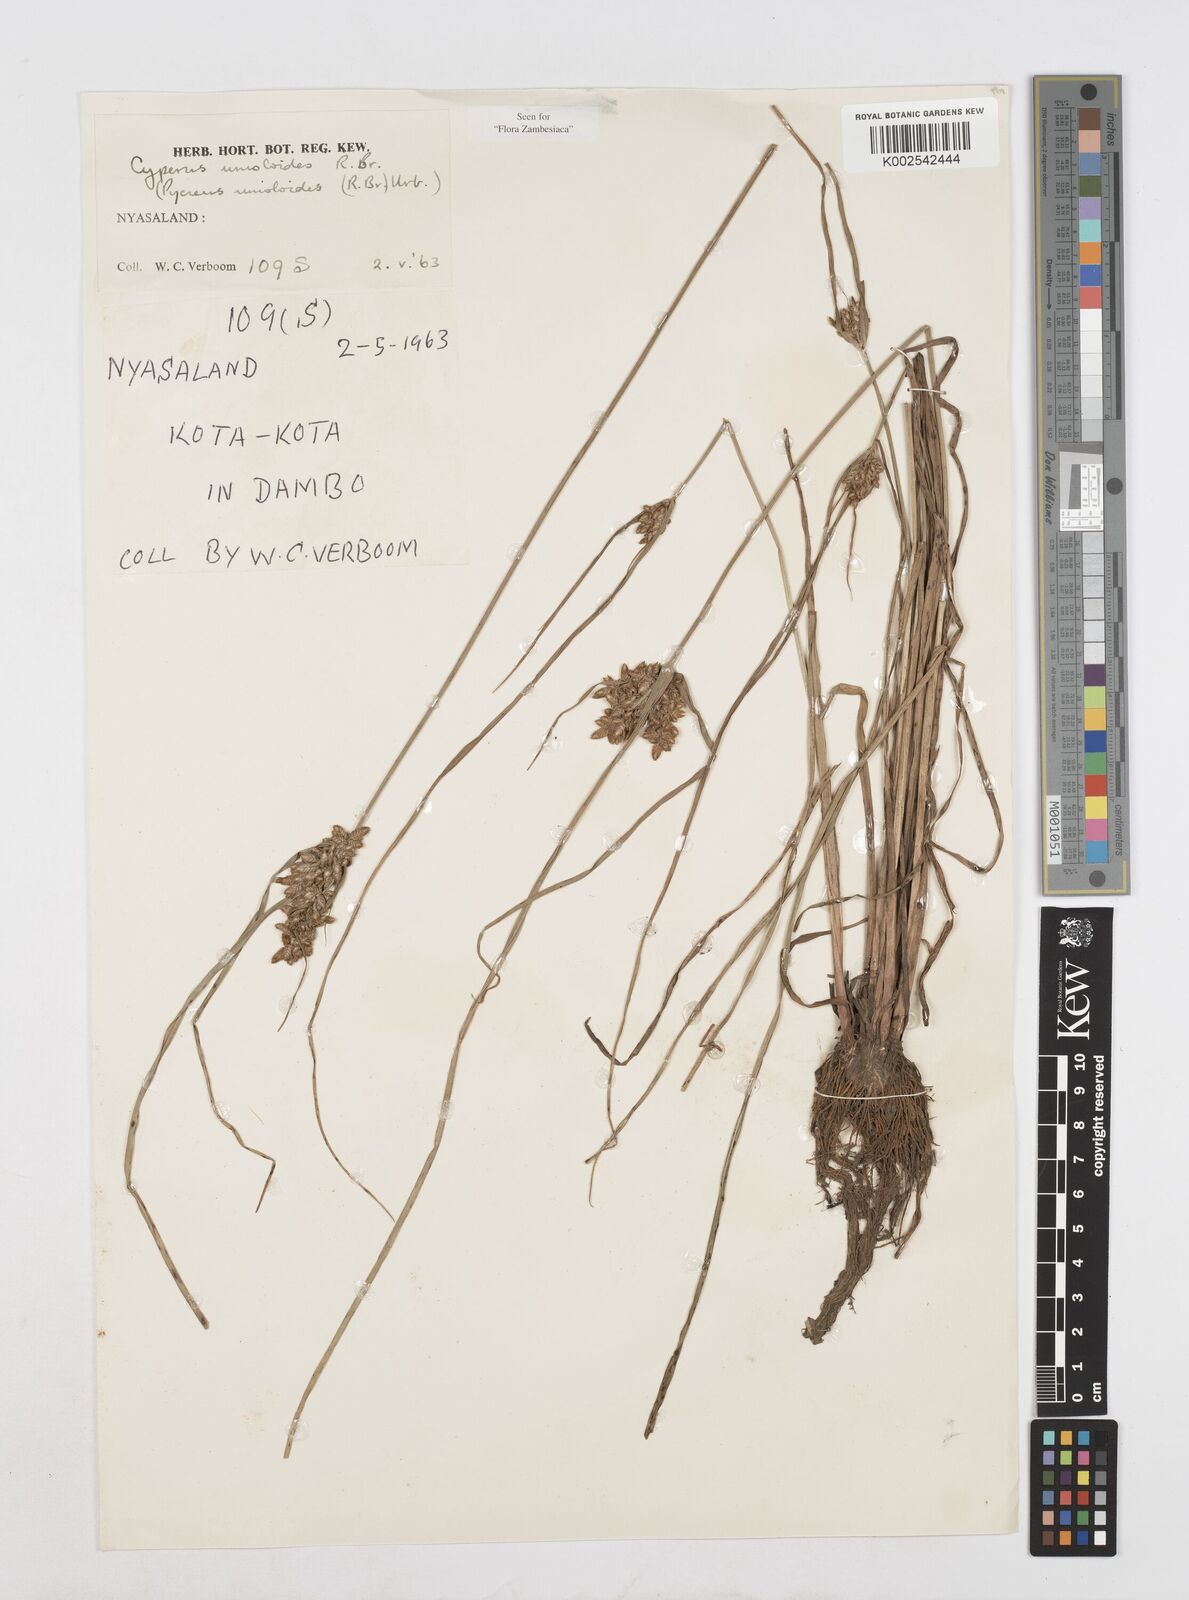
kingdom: Plantae
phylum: Tracheophyta
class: Liliopsida
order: Poales
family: Cyperaceae
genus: Cyperus
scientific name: Cyperus unioloides
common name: Uniola flatsedge
